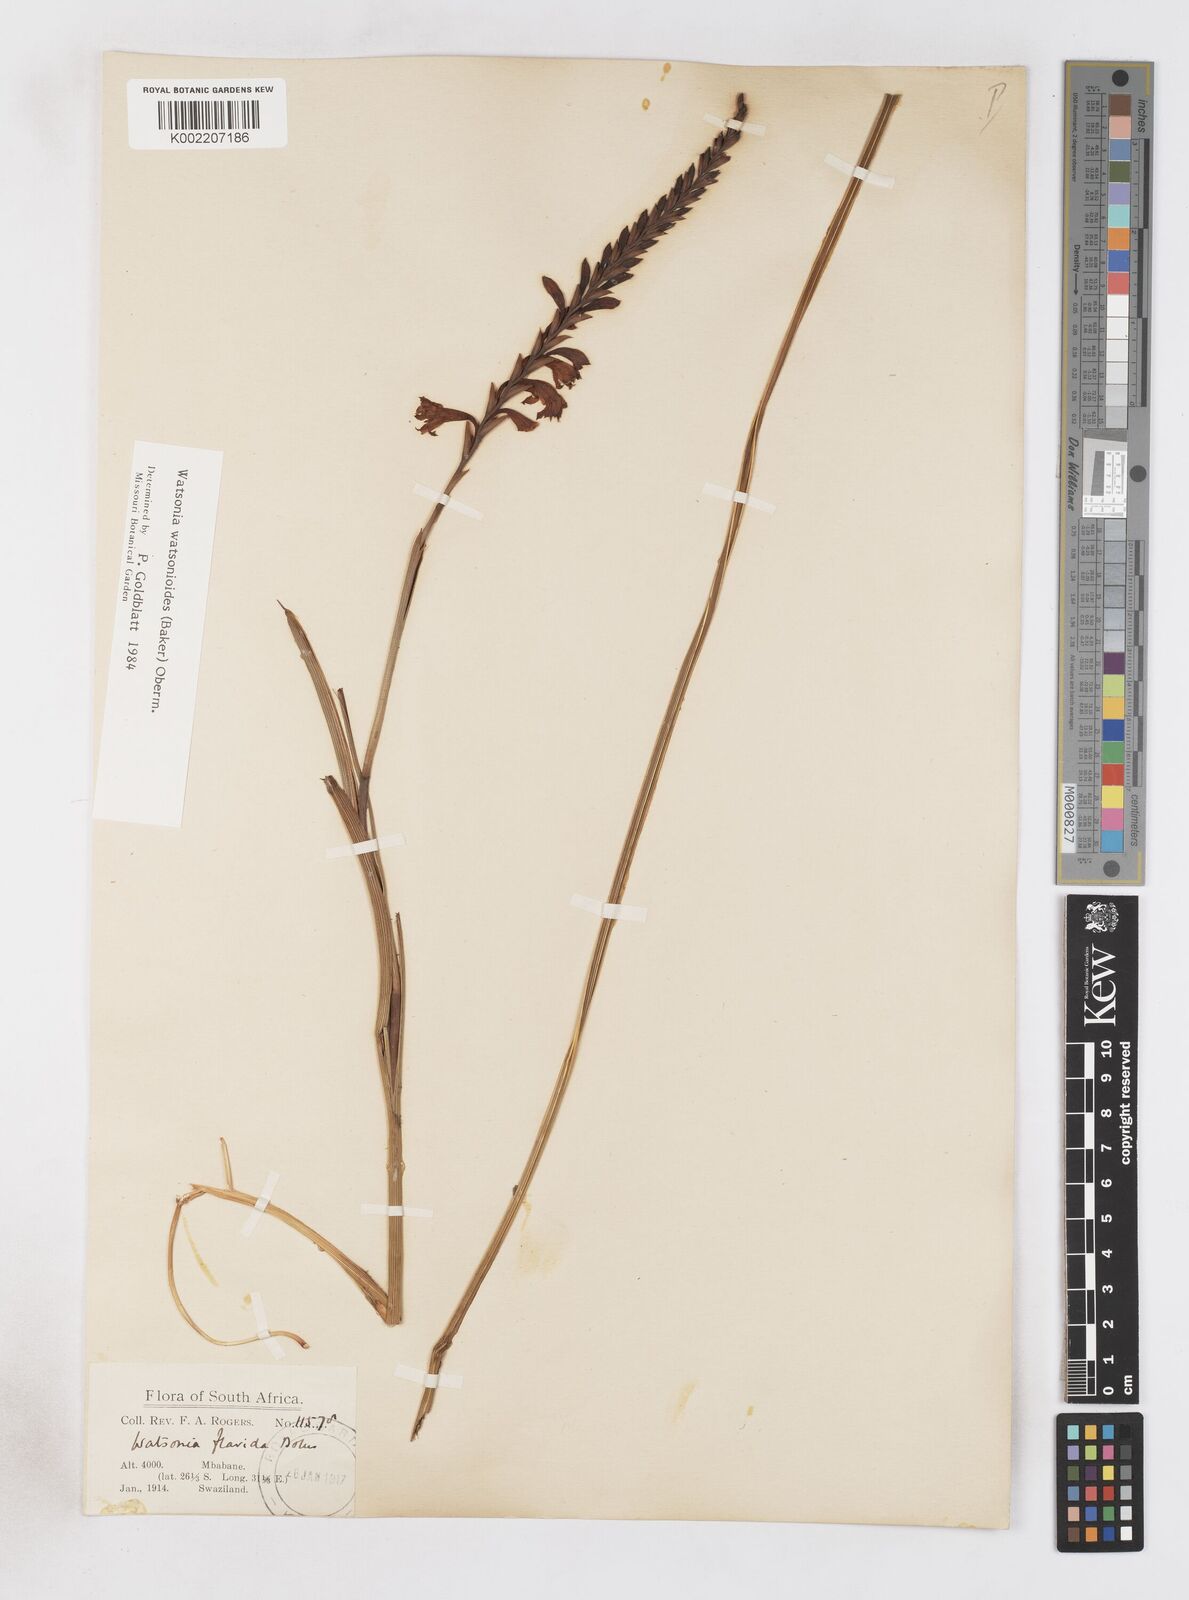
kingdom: Plantae
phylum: Tracheophyta
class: Liliopsida
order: Asparagales
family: Iridaceae
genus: Watsonia
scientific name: Watsonia watsonioides
